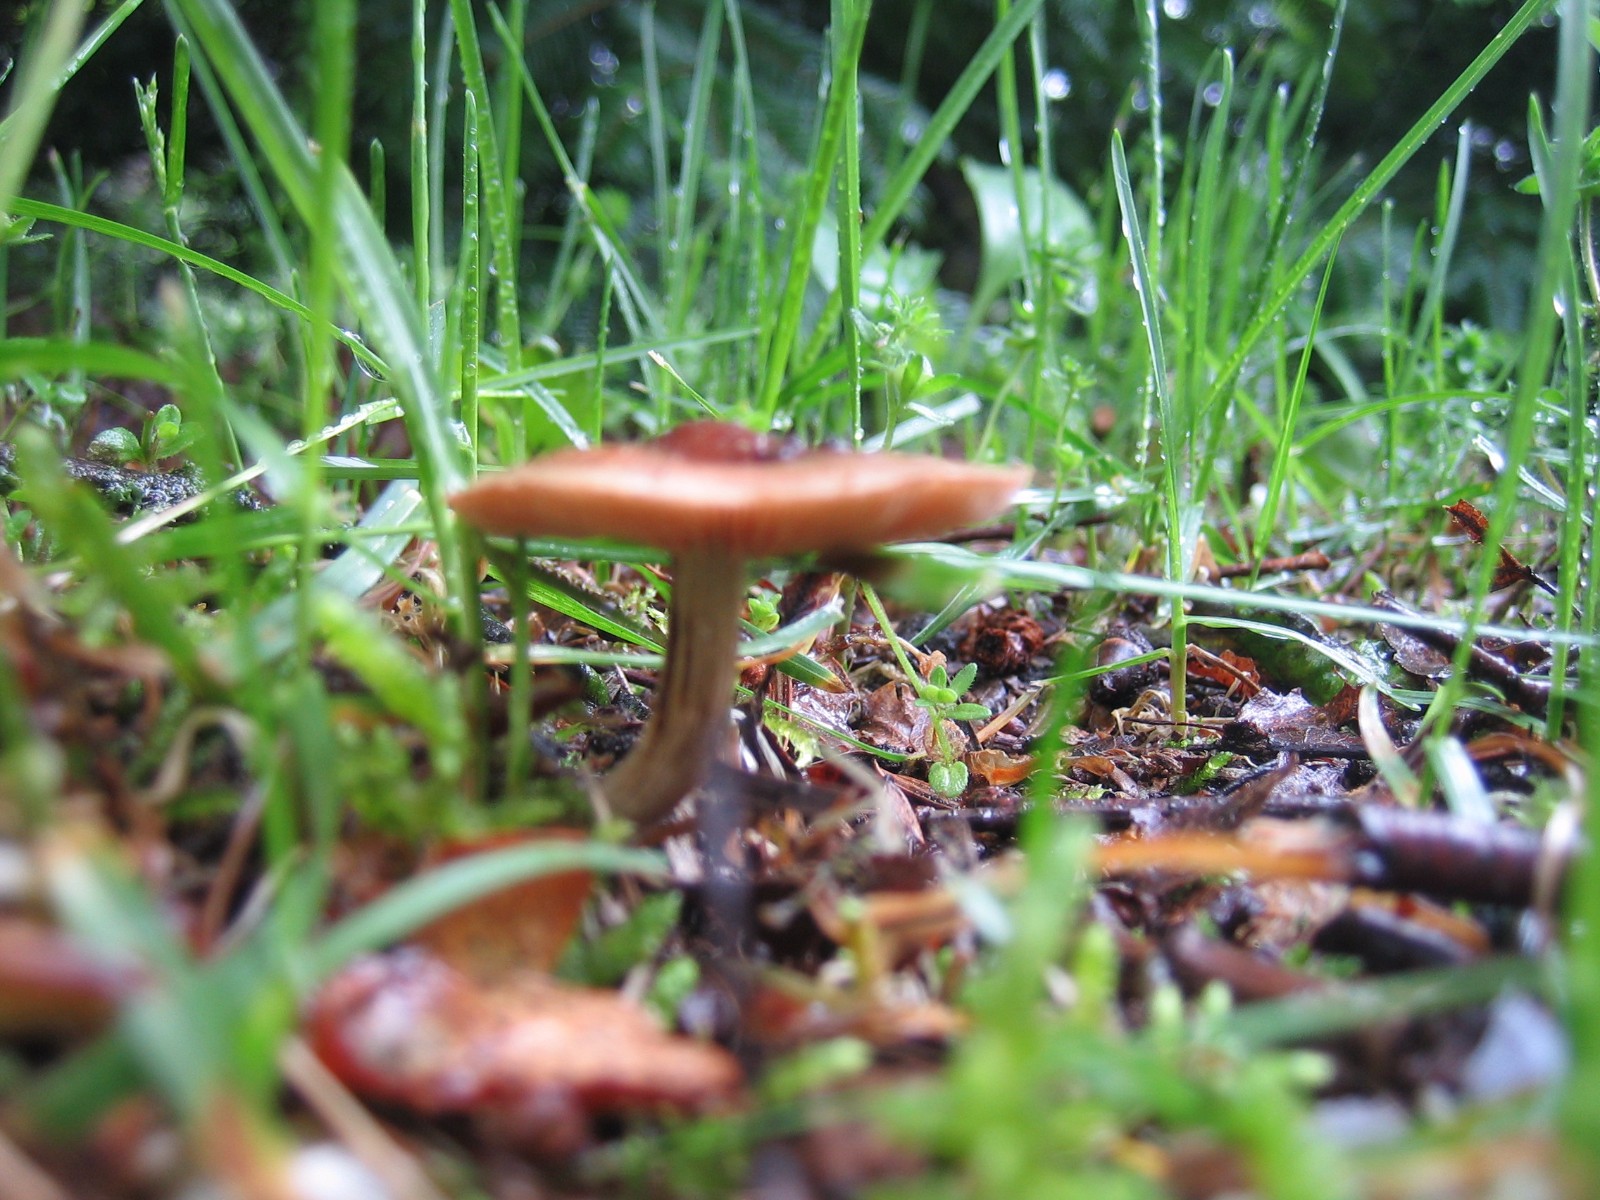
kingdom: Fungi
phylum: Basidiomycota
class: Agaricomycetes
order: Agaricales
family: Hymenogastraceae
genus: Naucoria
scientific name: Naucoria
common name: knaphat
